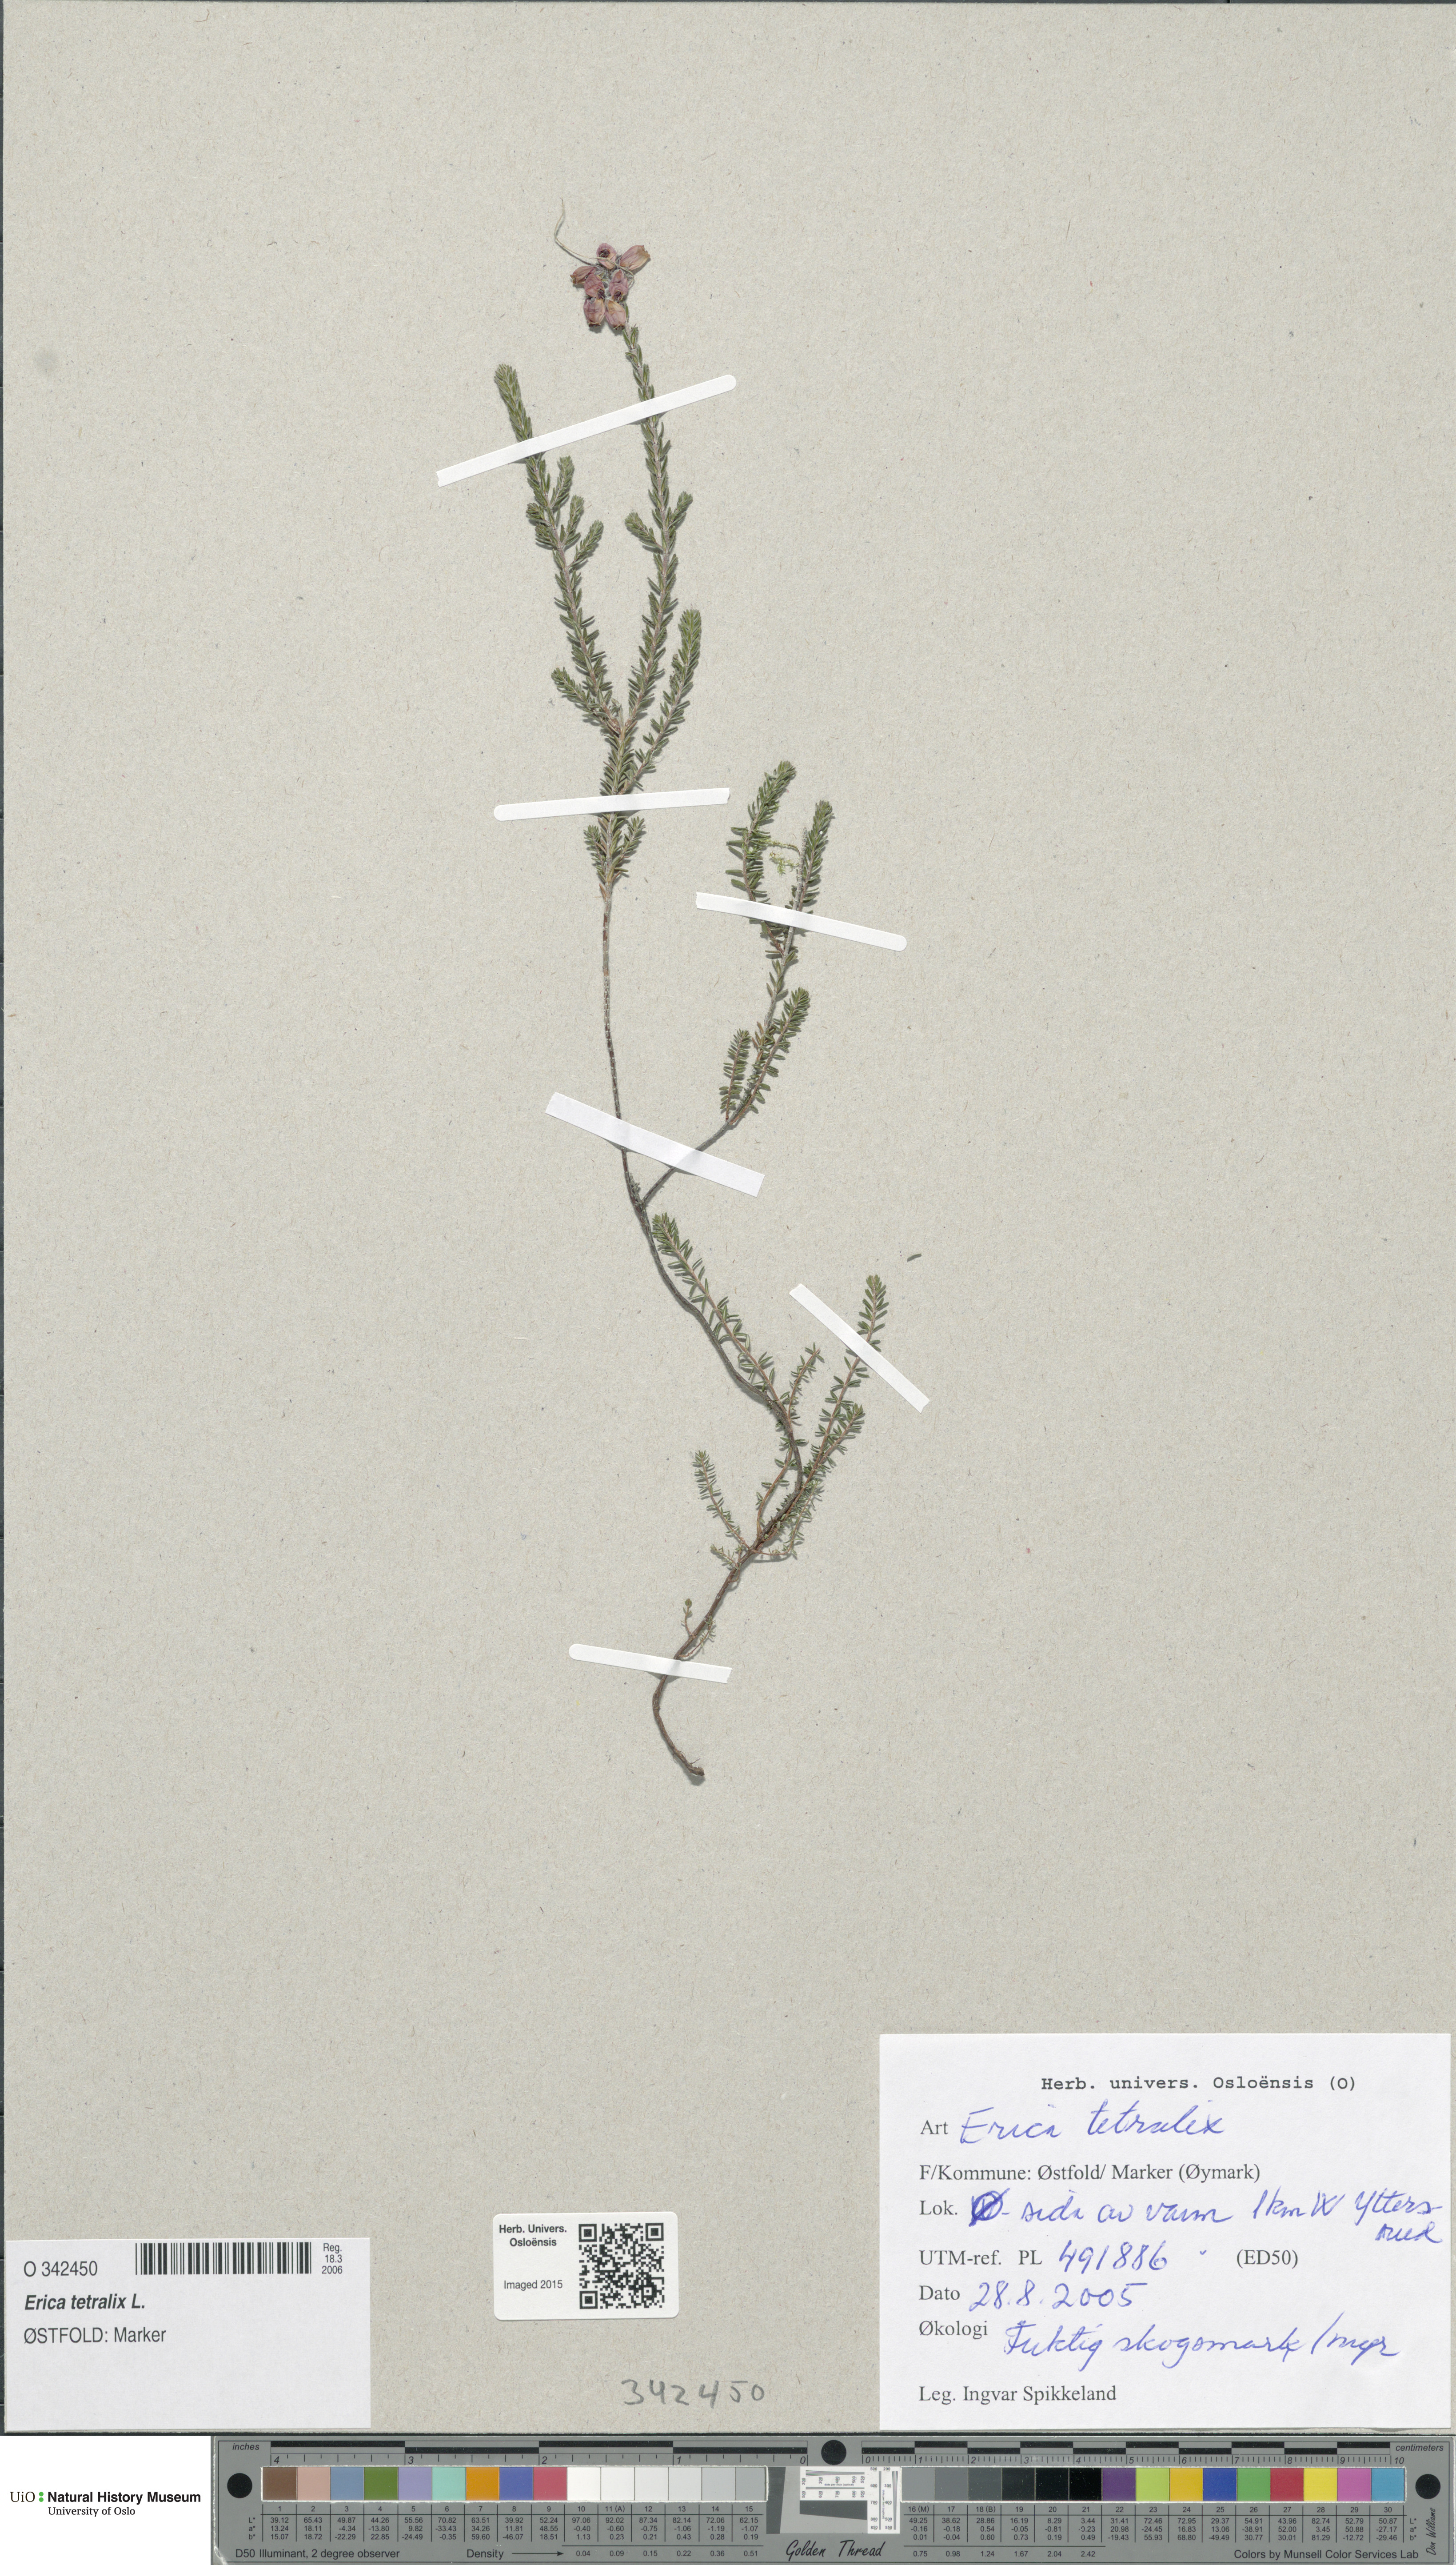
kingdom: Plantae
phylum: Tracheophyta
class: Magnoliopsida
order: Ericales
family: Ericaceae
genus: Erica
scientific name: Erica tetralix
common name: Cross-leaved heath
